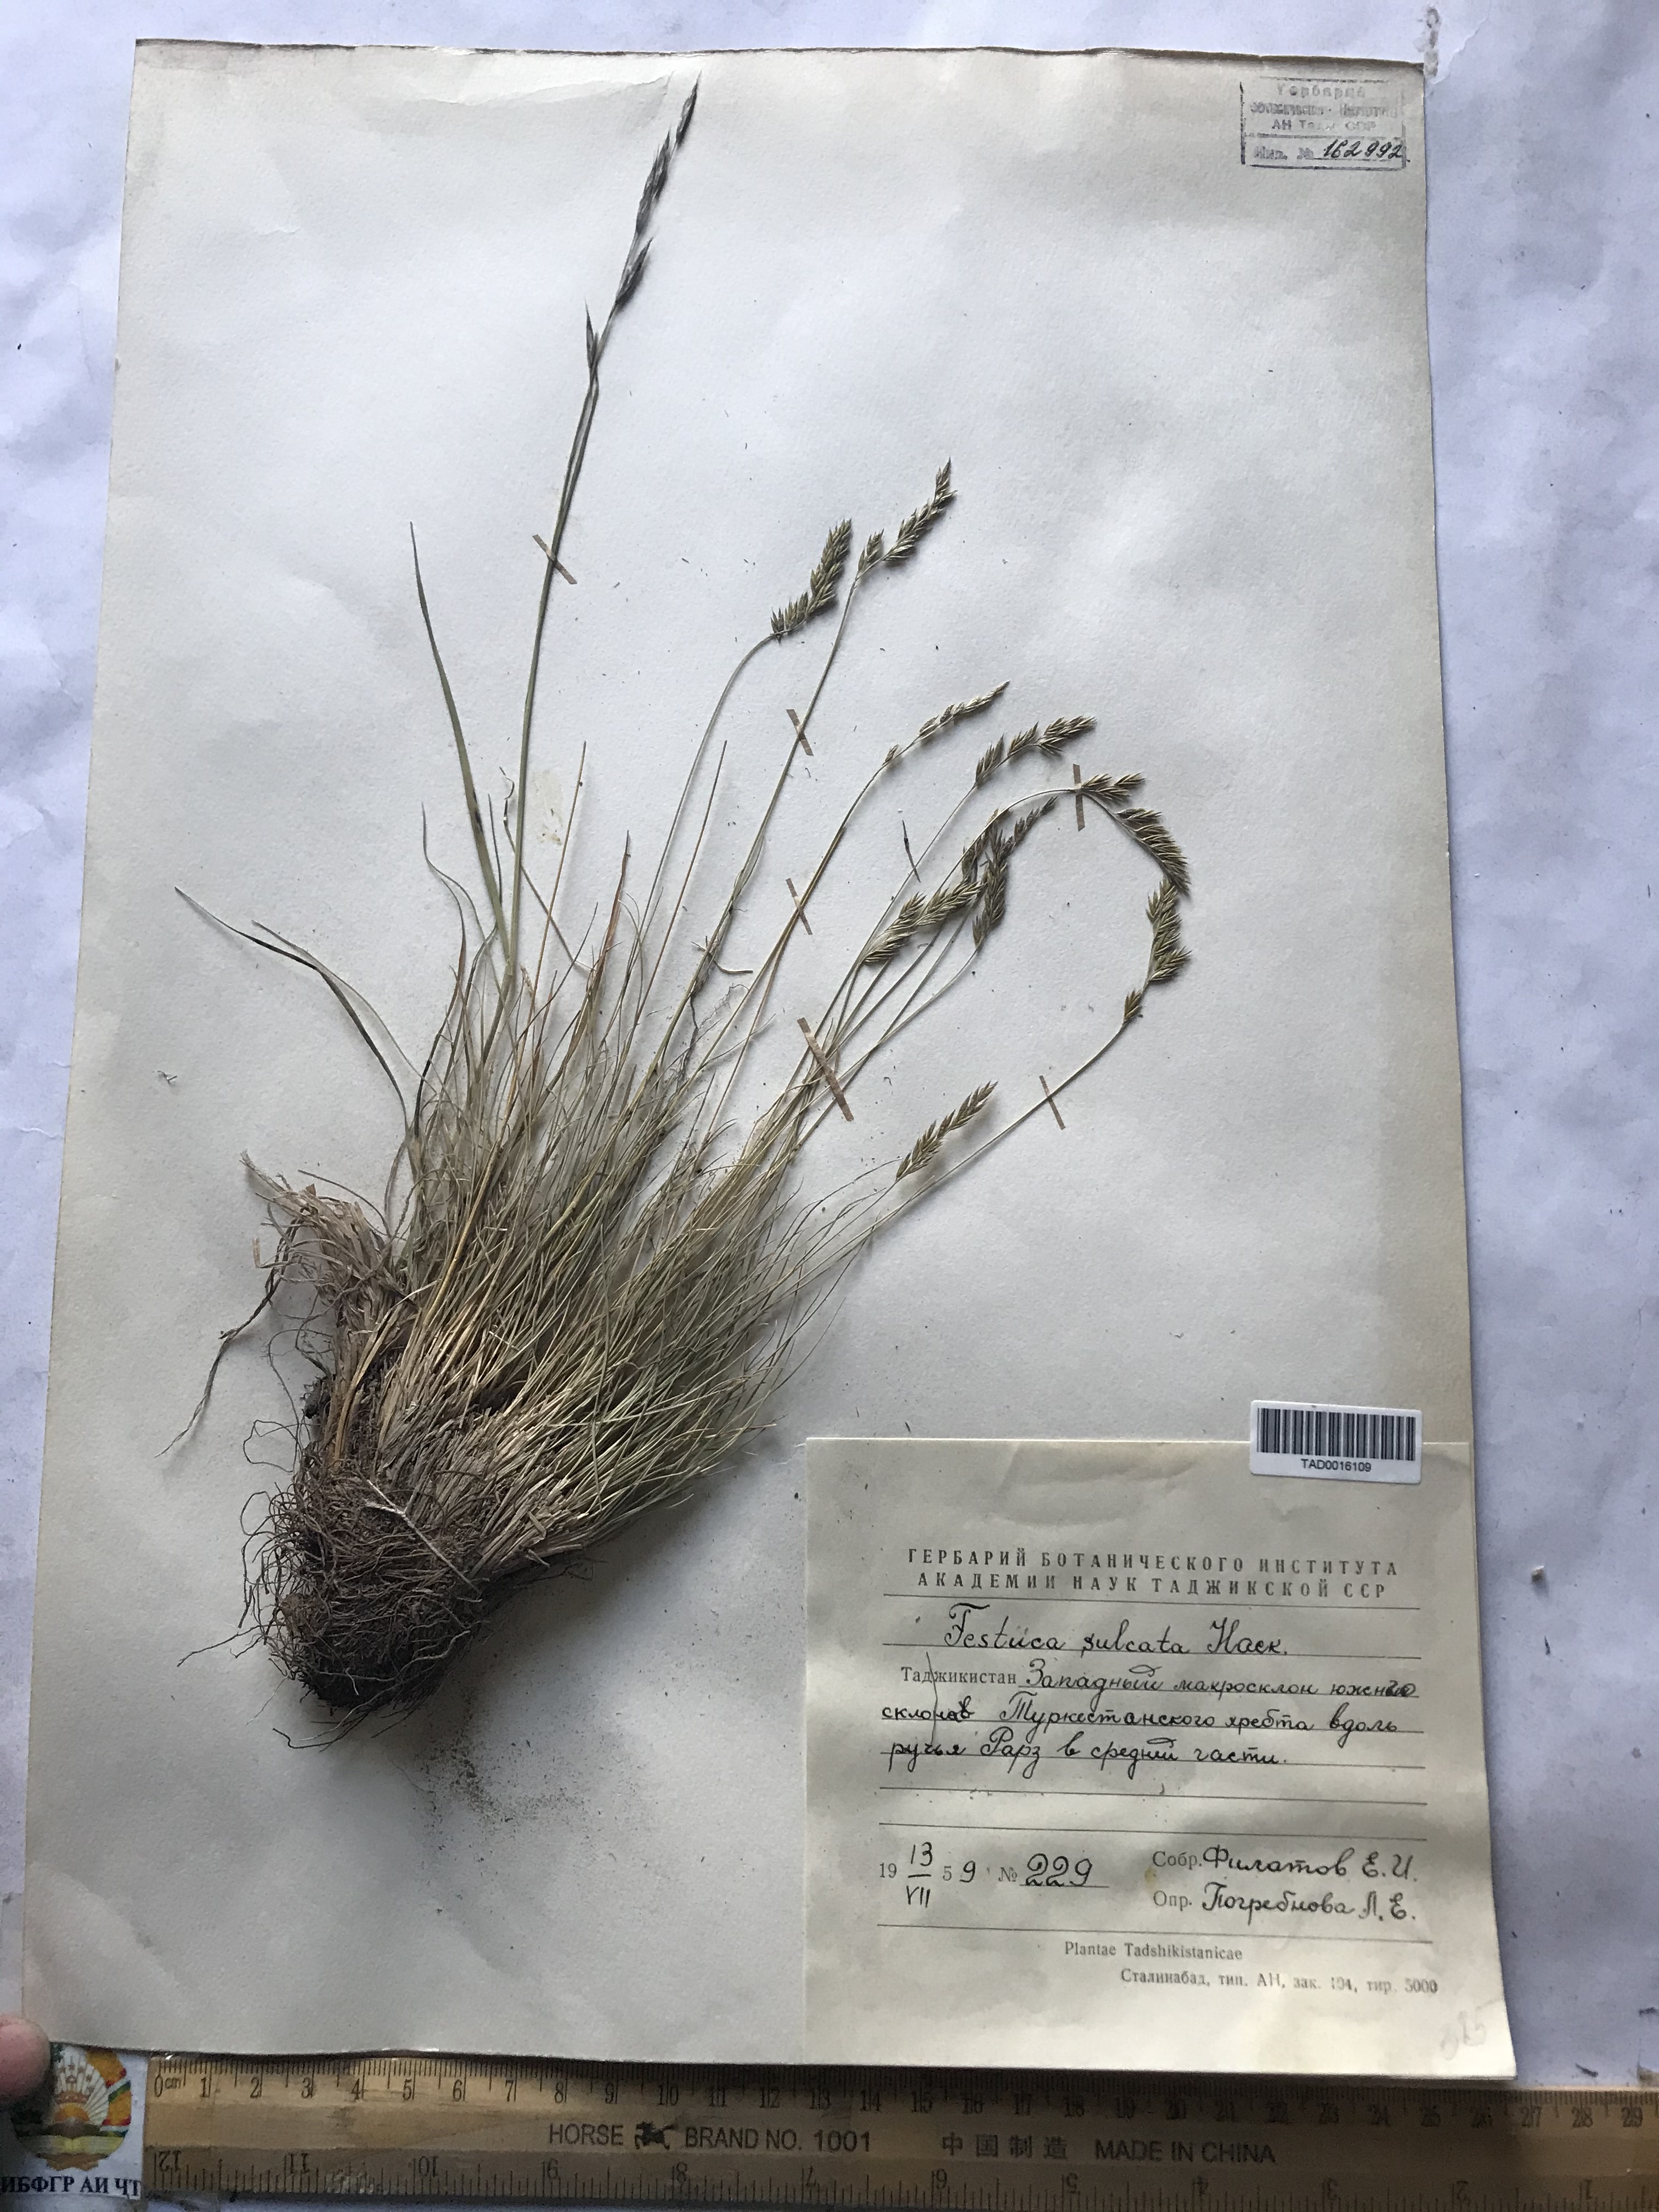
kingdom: Plantae
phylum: Tracheophyta
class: Liliopsida
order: Poales
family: Poaceae
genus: Festuca
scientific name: Festuca sulcata
